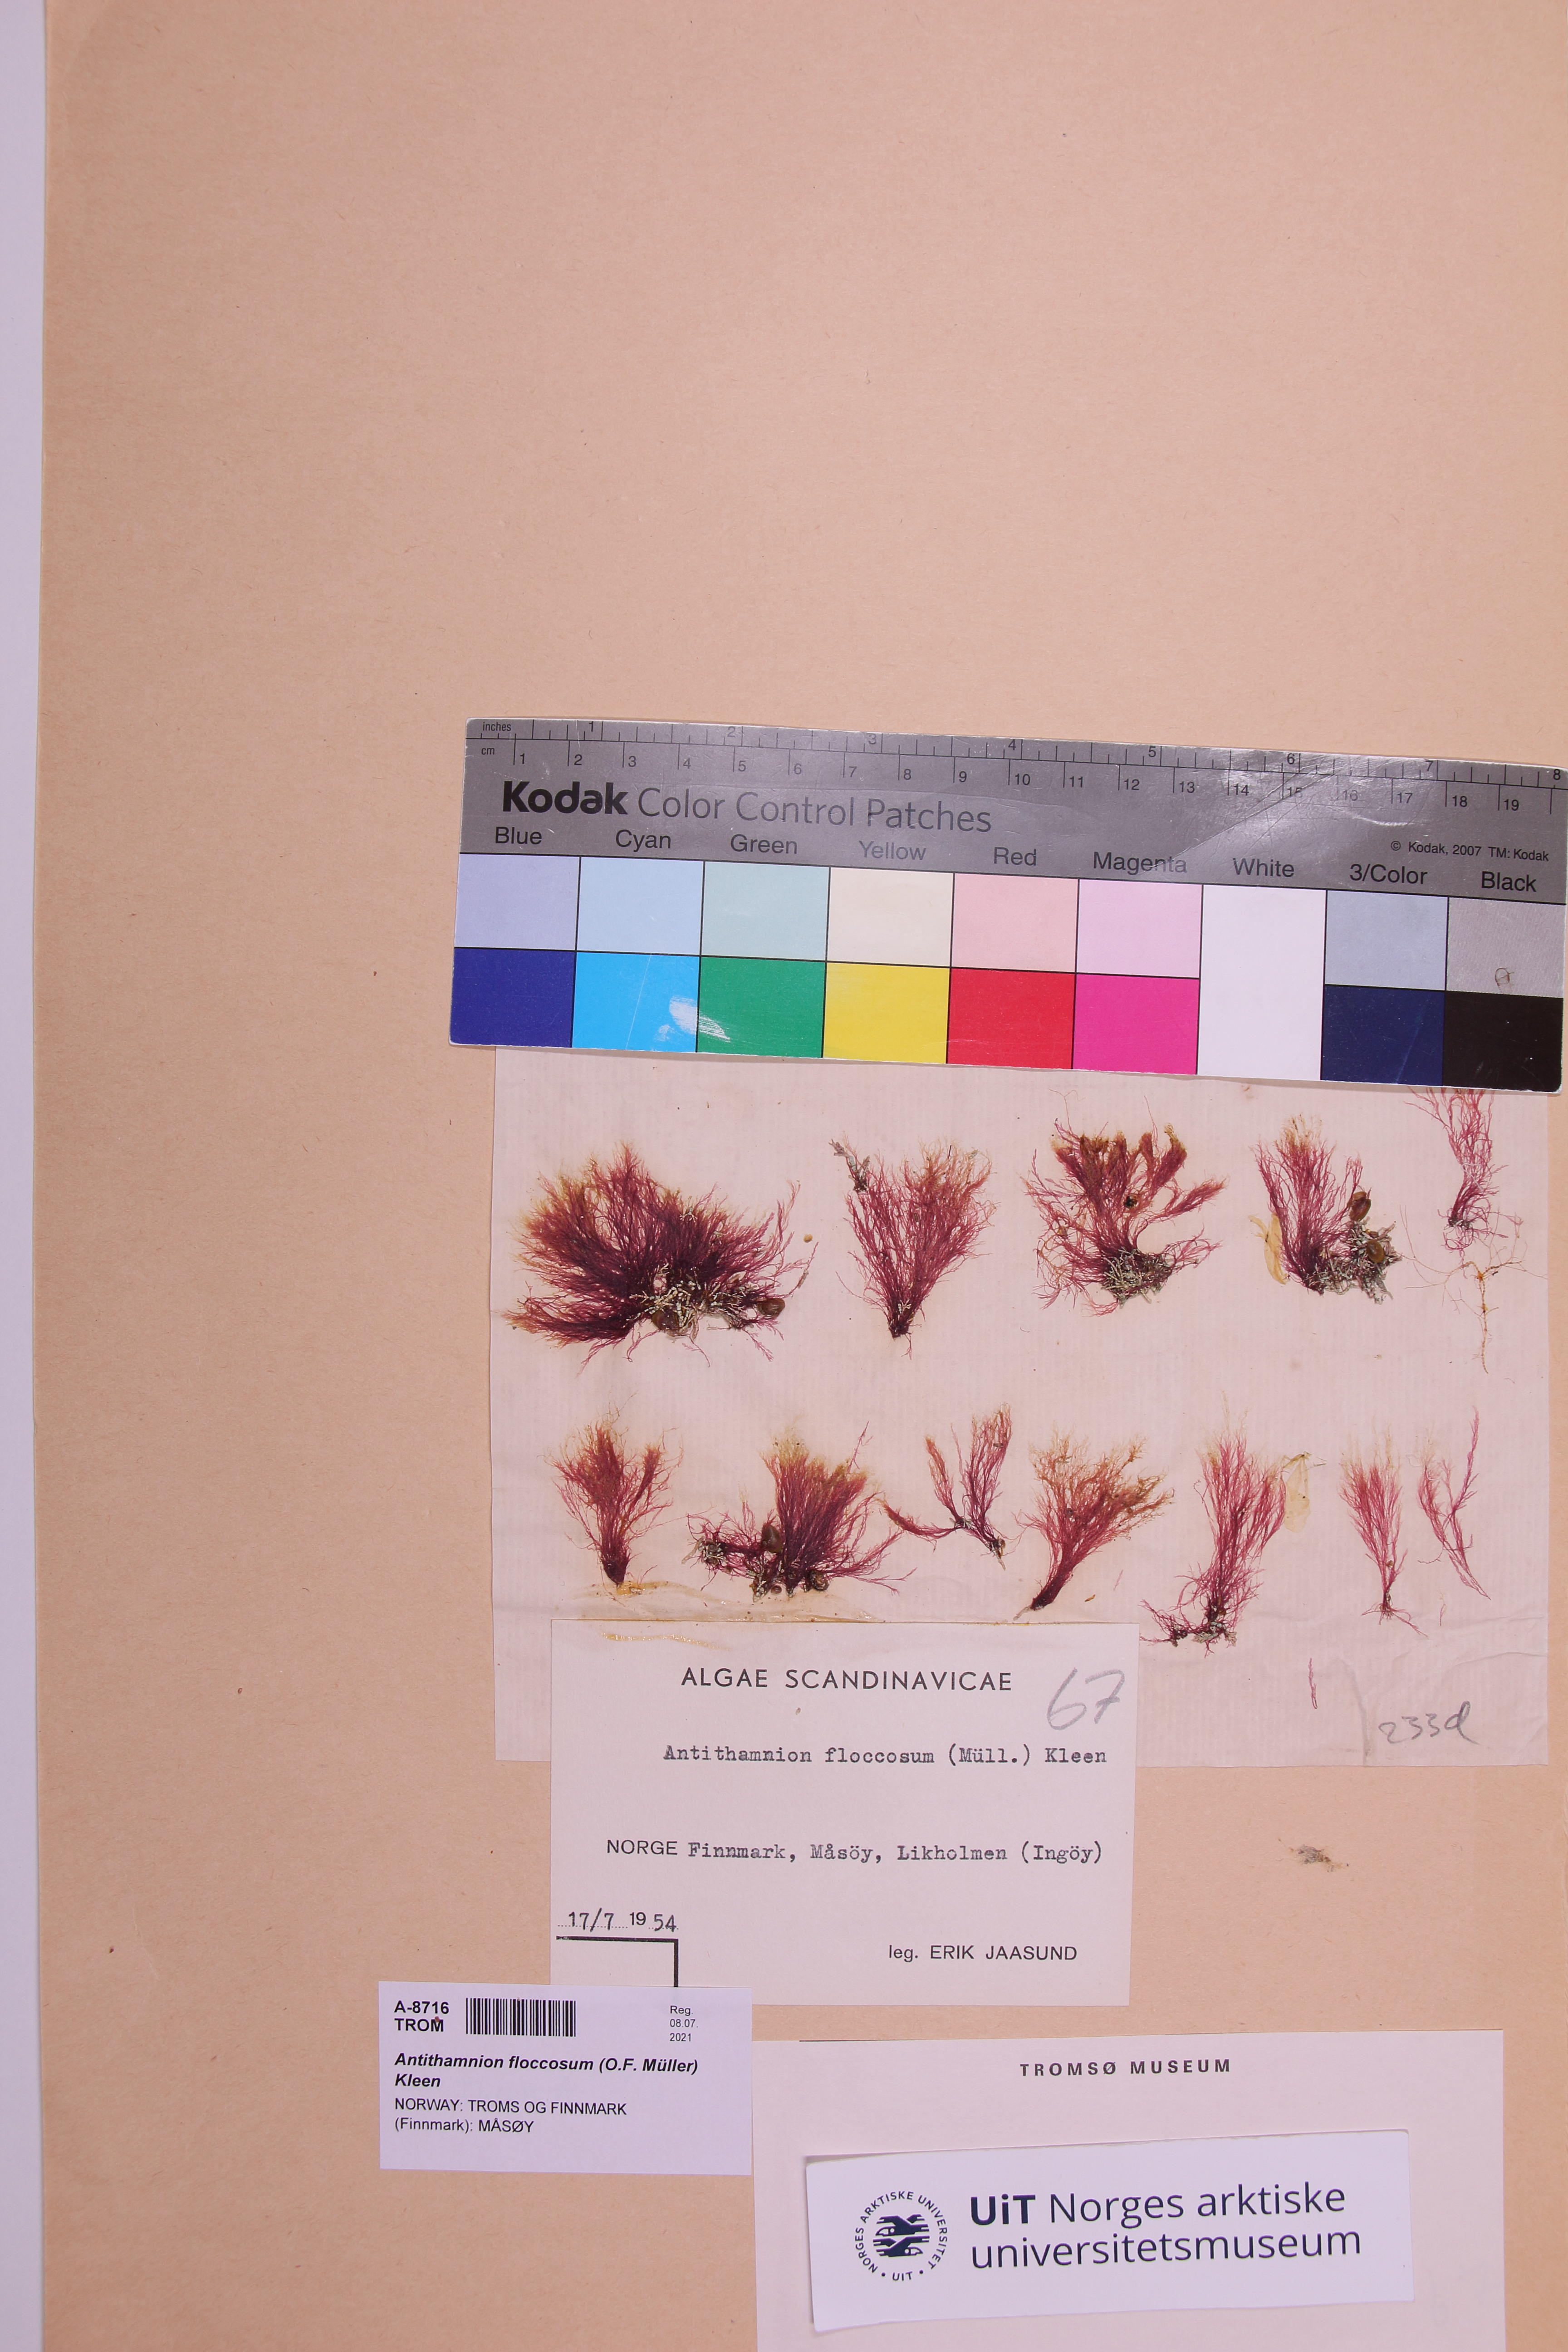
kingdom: Plantae
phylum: Rhodophyta
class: Florideophyceae
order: Ceramiales
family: Ceramiaceae
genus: Antithamnionella
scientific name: Antithamnionella floccosa
